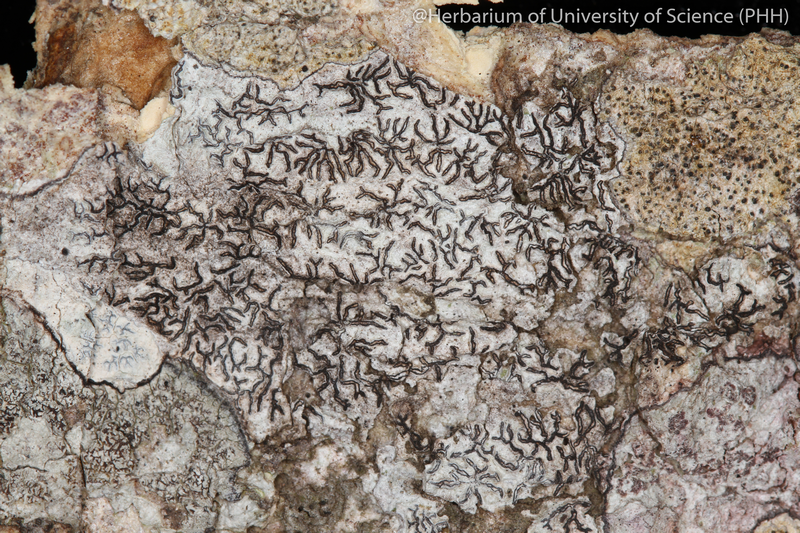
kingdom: Fungi
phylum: Ascomycota
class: Lecanoromycetes
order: Ostropales
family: Graphidaceae
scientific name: Graphidaceae
